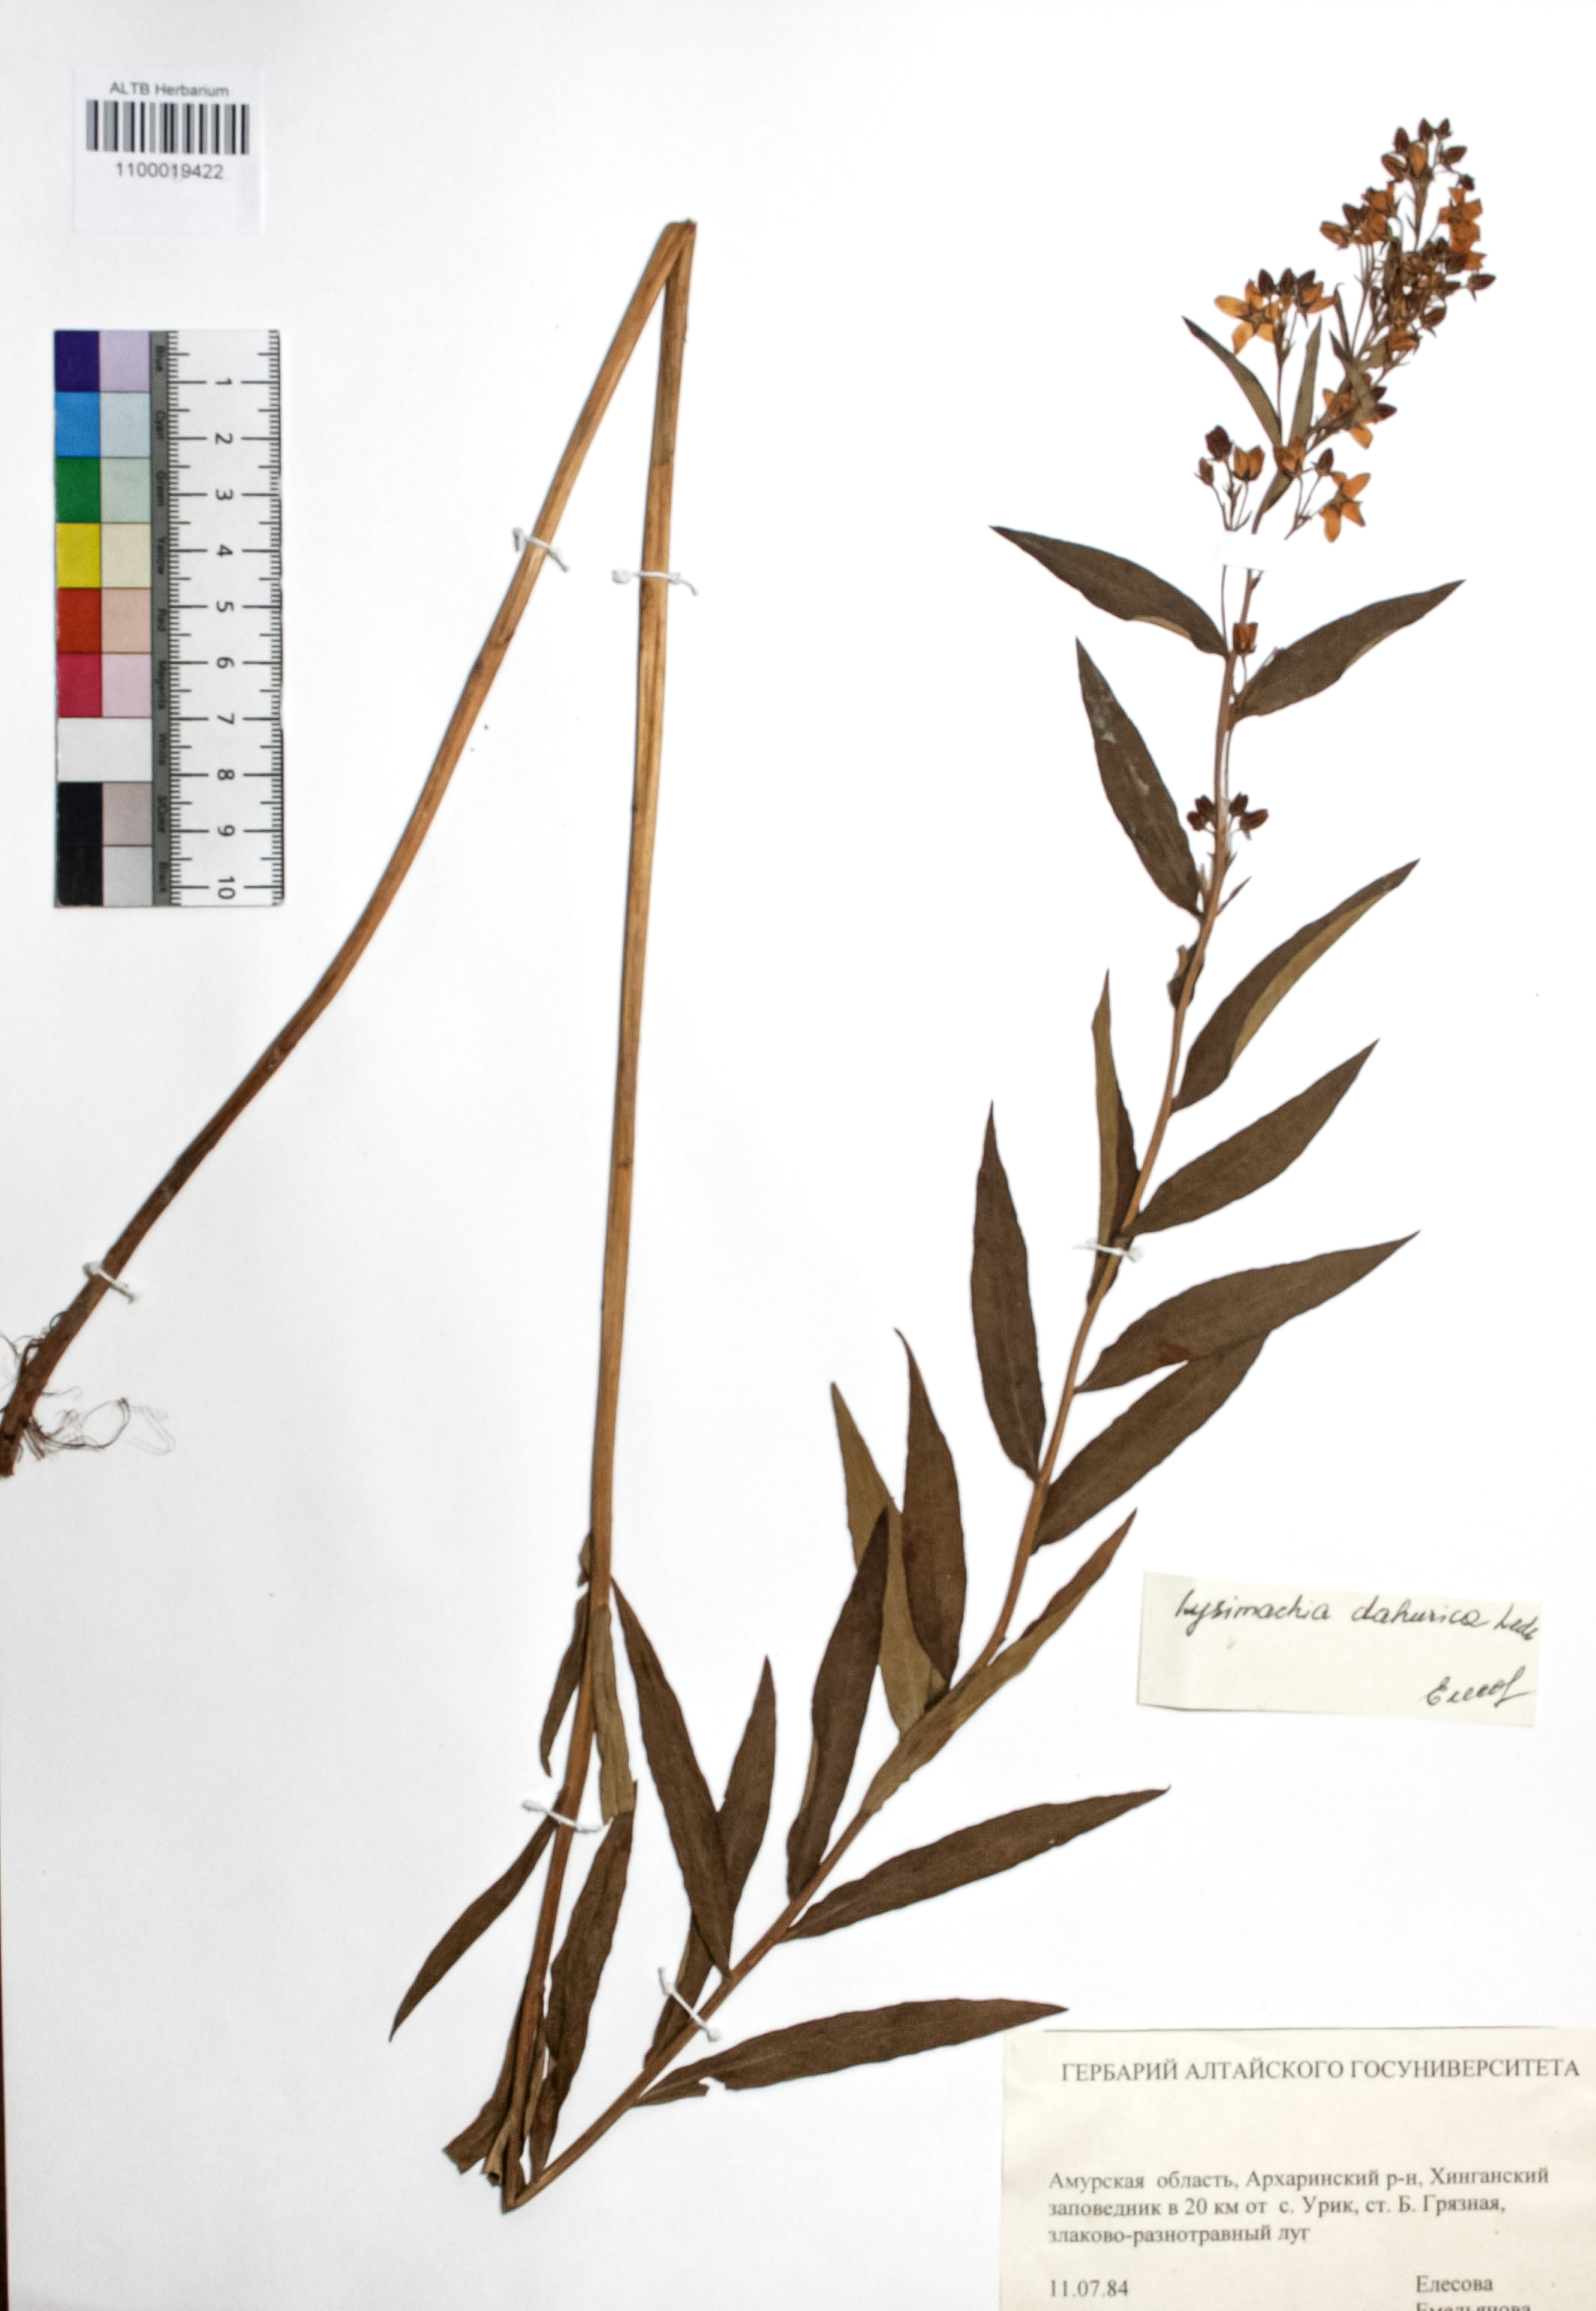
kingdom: Plantae
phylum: Tracheophyta
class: Magnoliopsida
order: Ericales
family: Primulaceae
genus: Lysimachia
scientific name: Lysimachia davurica
